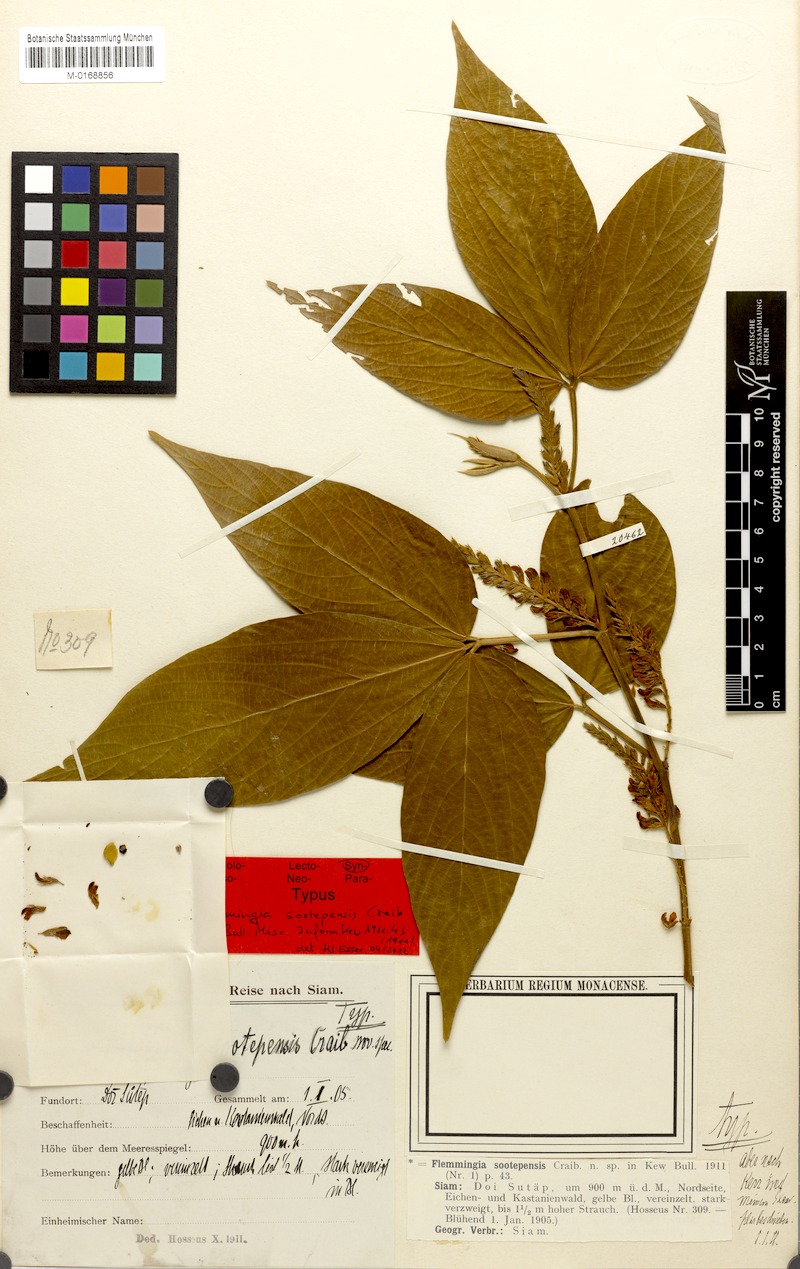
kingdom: Plantae
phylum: Tracheophyta
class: Magnoliopsida
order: Fabales
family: Fabaceae
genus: Flemingia
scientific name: Flemingia sootepensis
